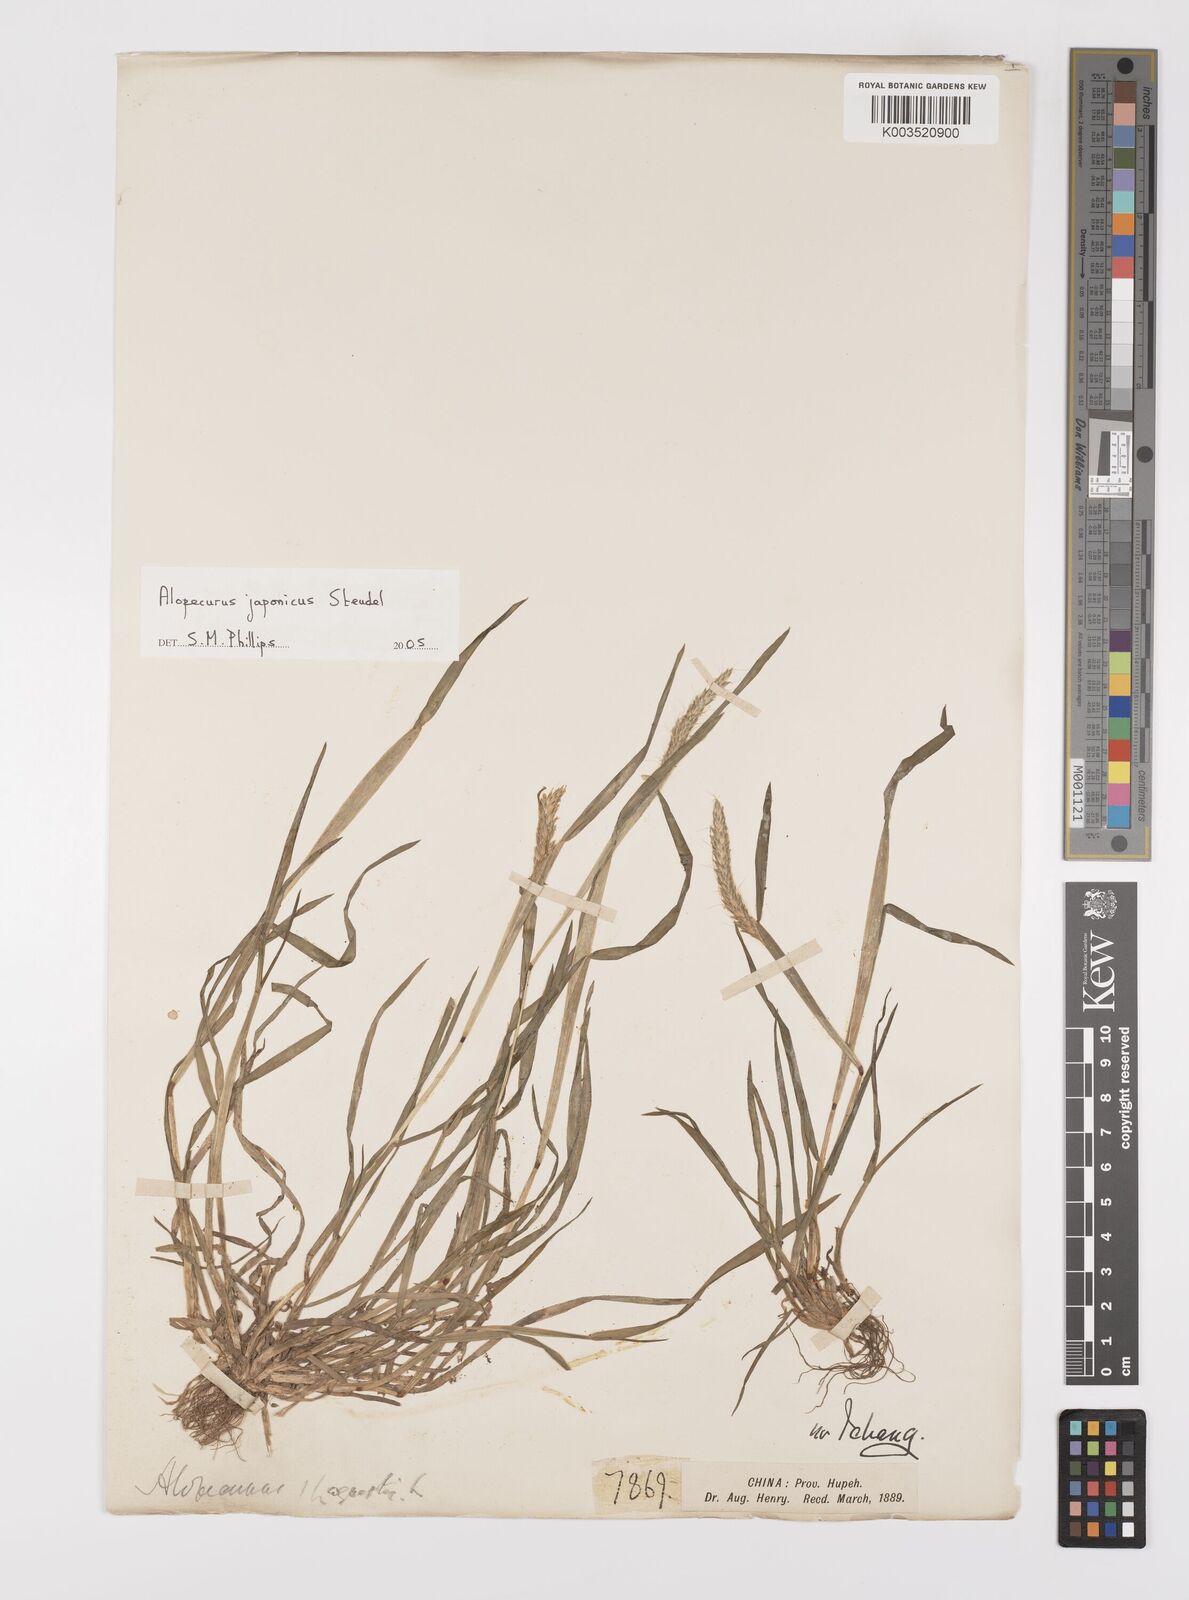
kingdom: Plantae
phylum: Tracheophyta
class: Liliopsida
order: Poales
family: Poaceae
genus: Alopecurus
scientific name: Alopecurus japonicus
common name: Japanese foxtail
